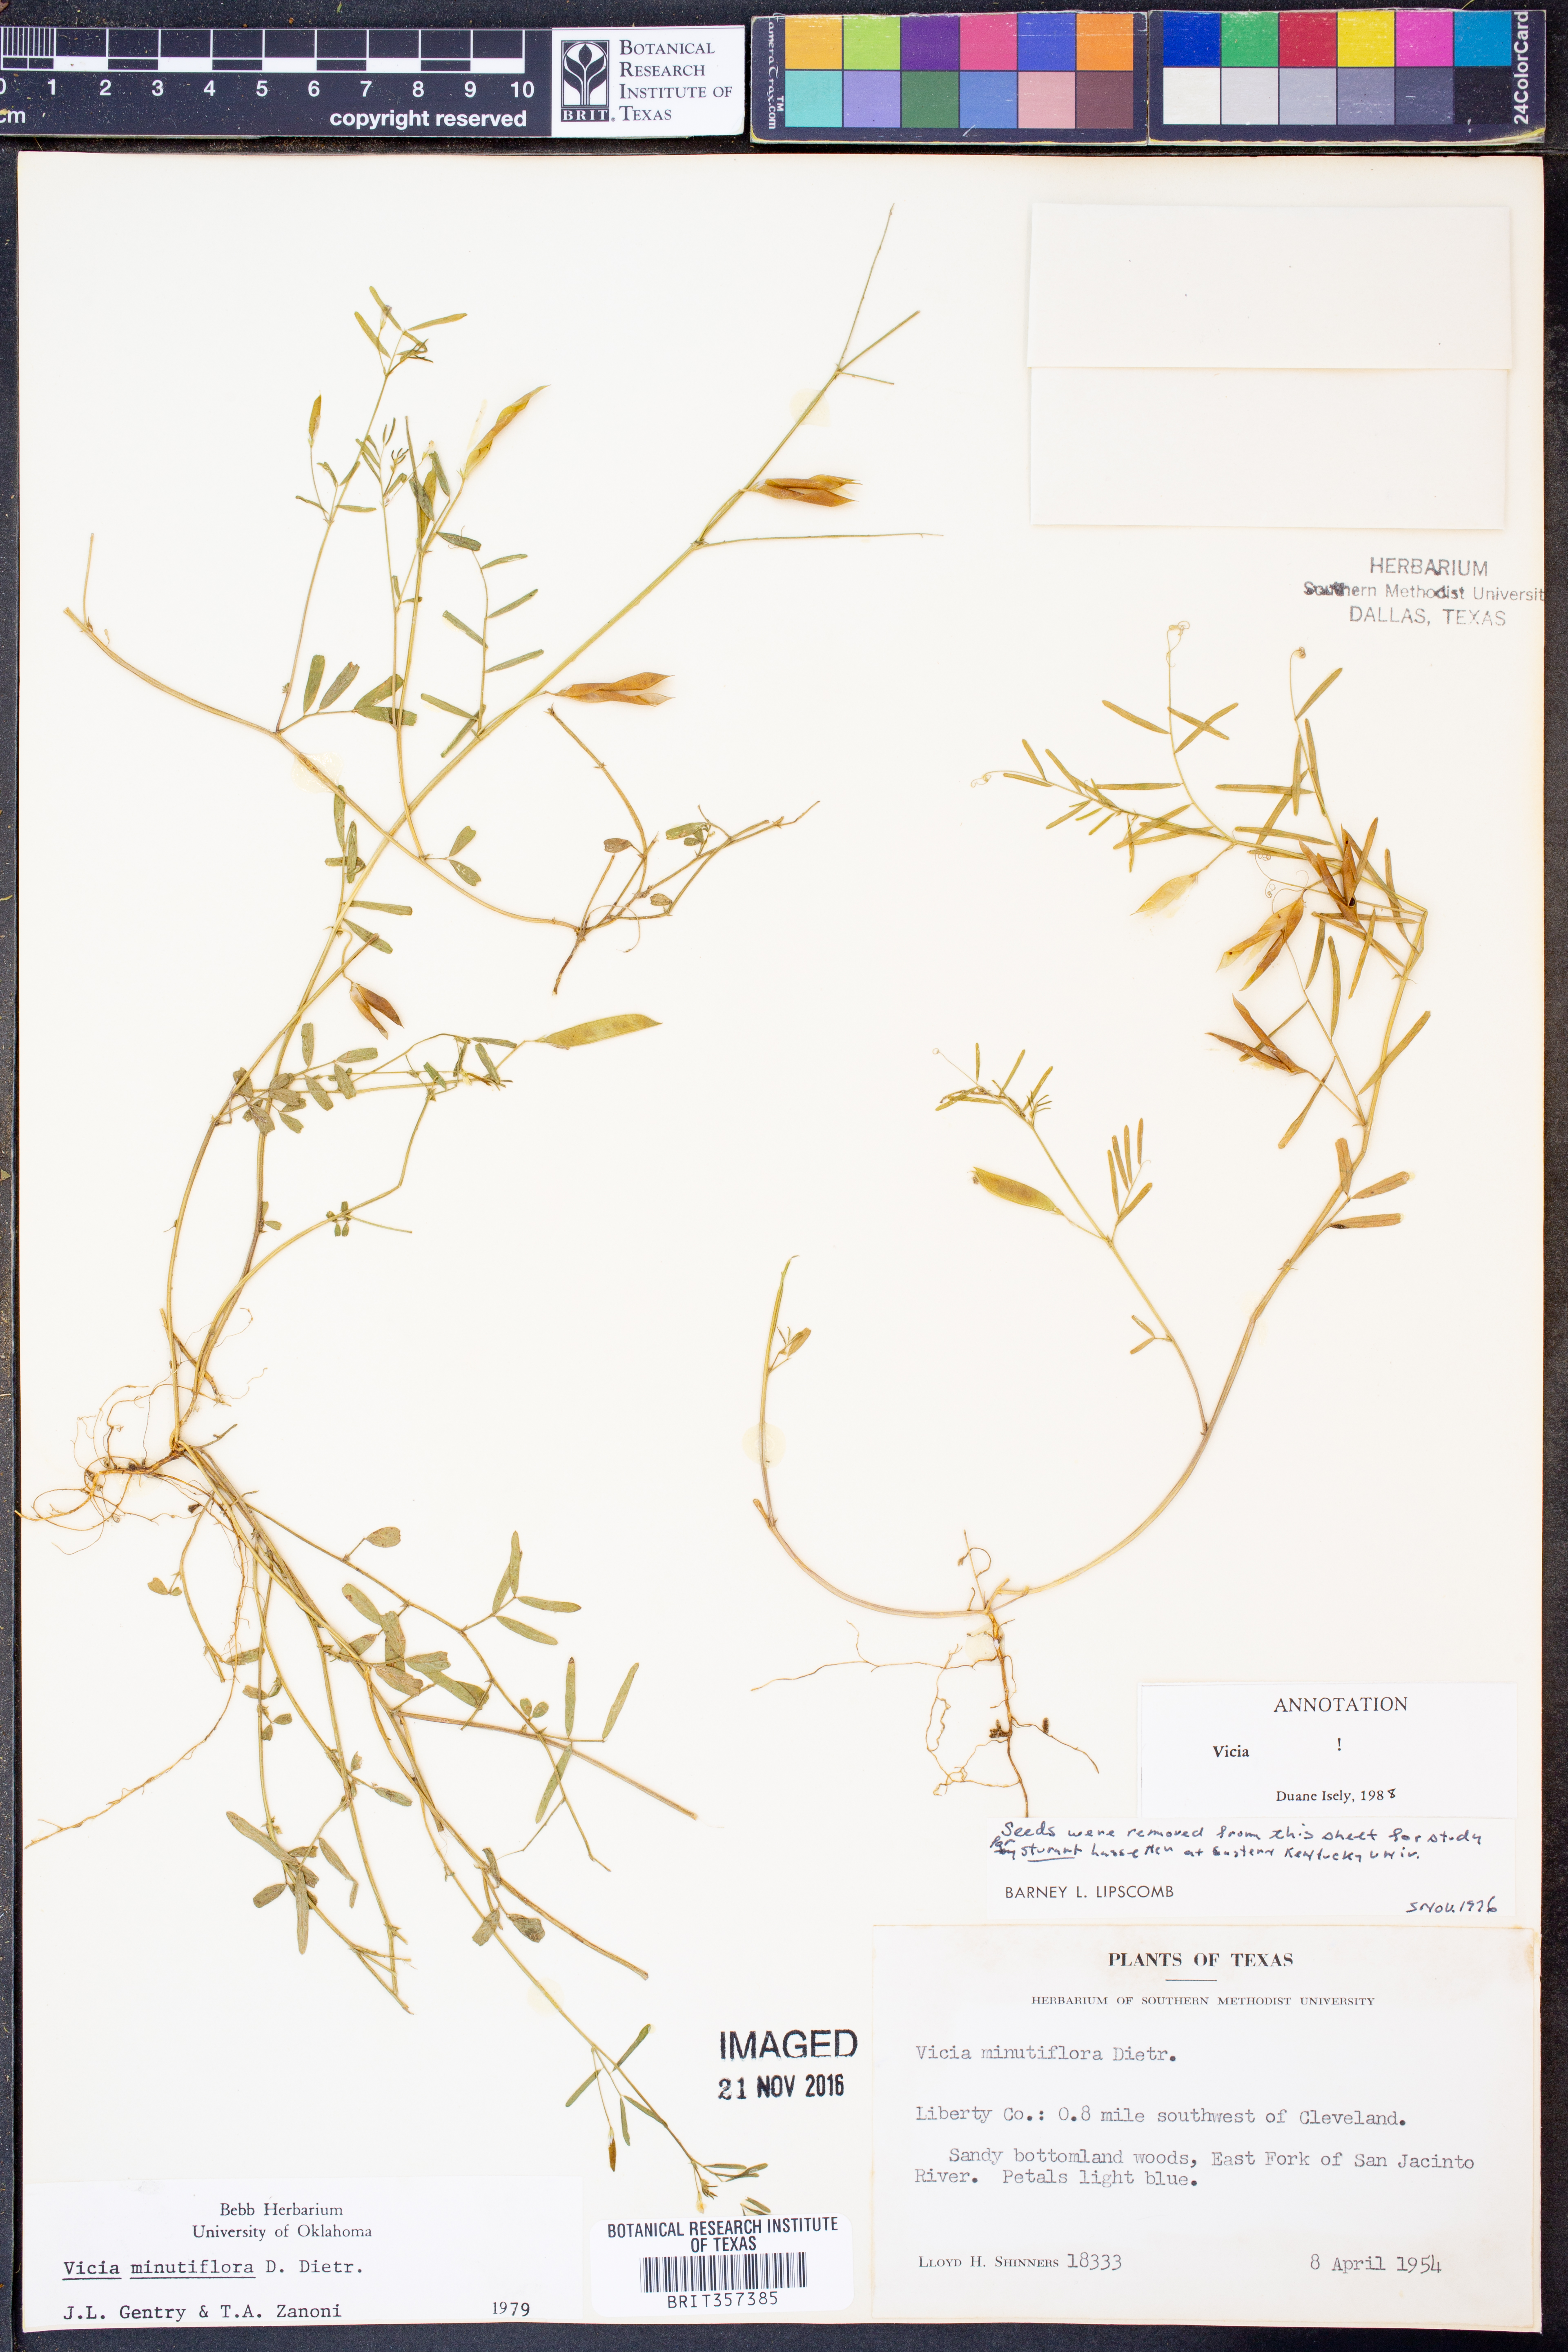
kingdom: Plantae
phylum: Tracheophyta
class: Magnoliopsida
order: Fabales
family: Fabaceae
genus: Vicia
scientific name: Vicia minutiflora
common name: Pygmy-flower vetch
